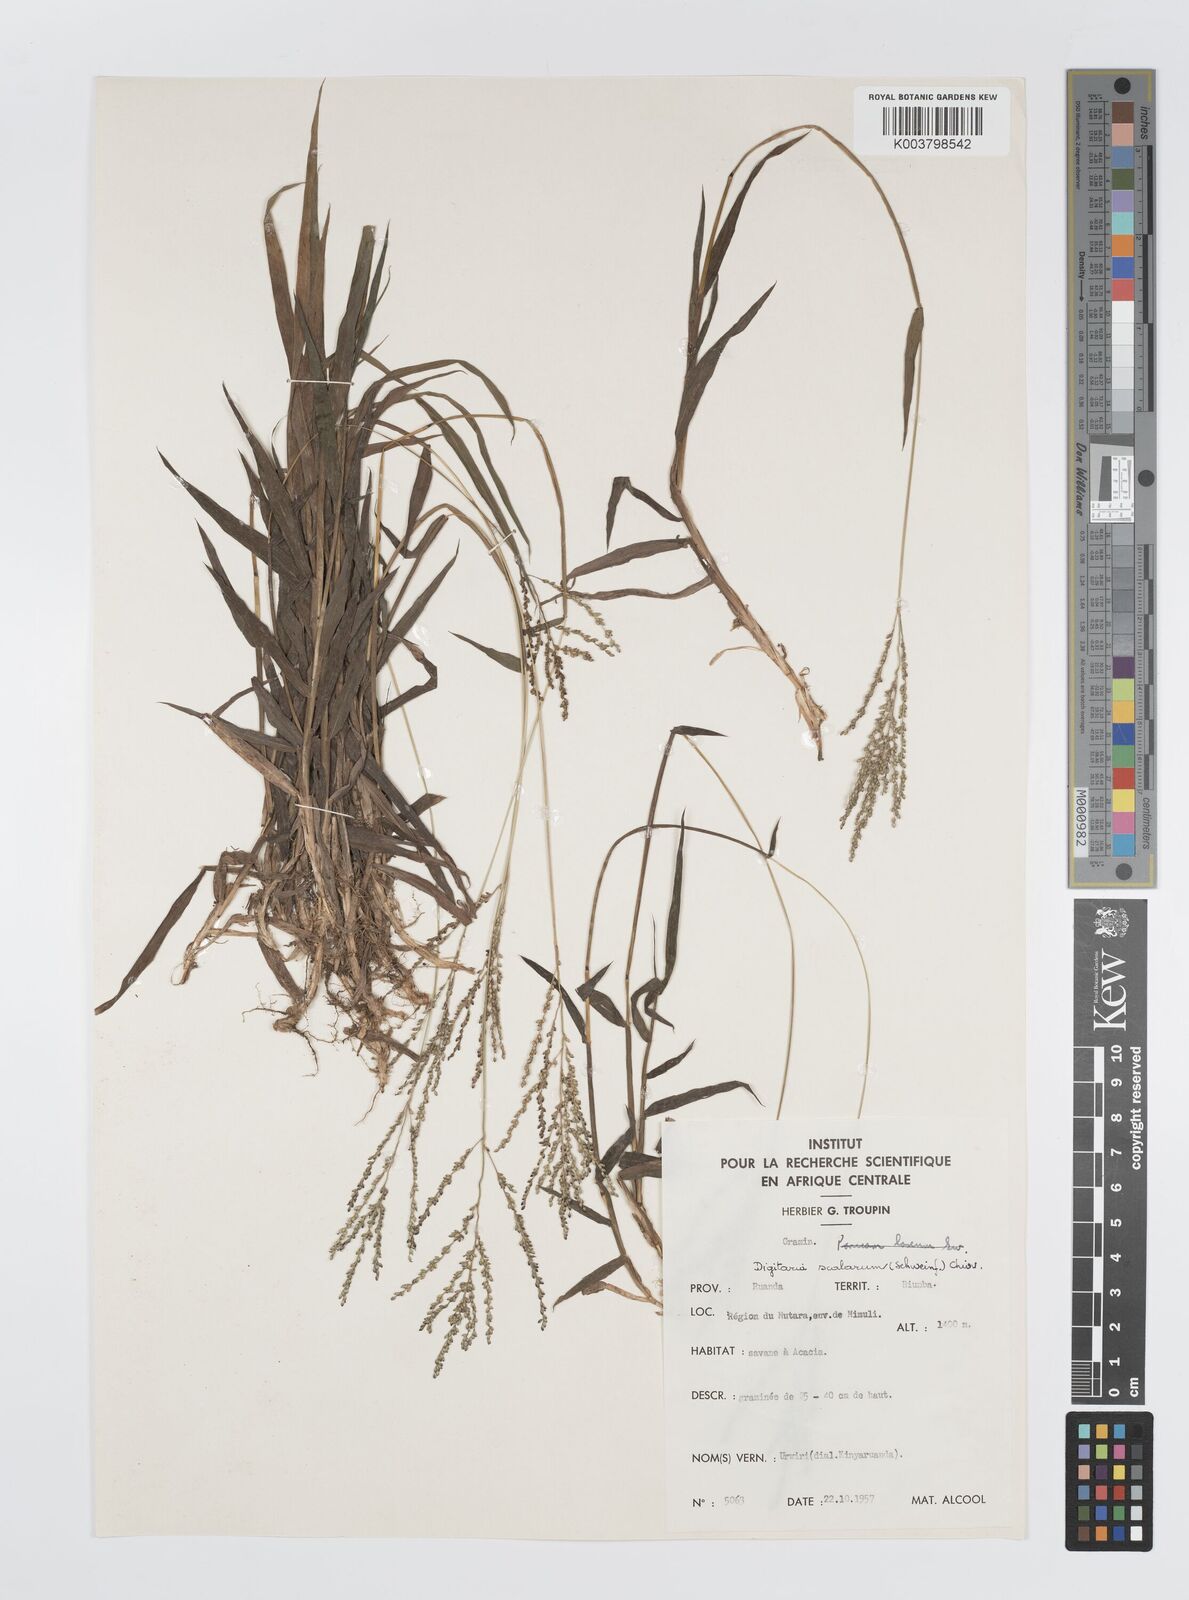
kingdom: Plantae
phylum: Tracheophyta
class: Liliopsida
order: Poales
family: Poaceae
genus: Digitaria
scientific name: Digitaria abyssinica
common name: African couchgrass
